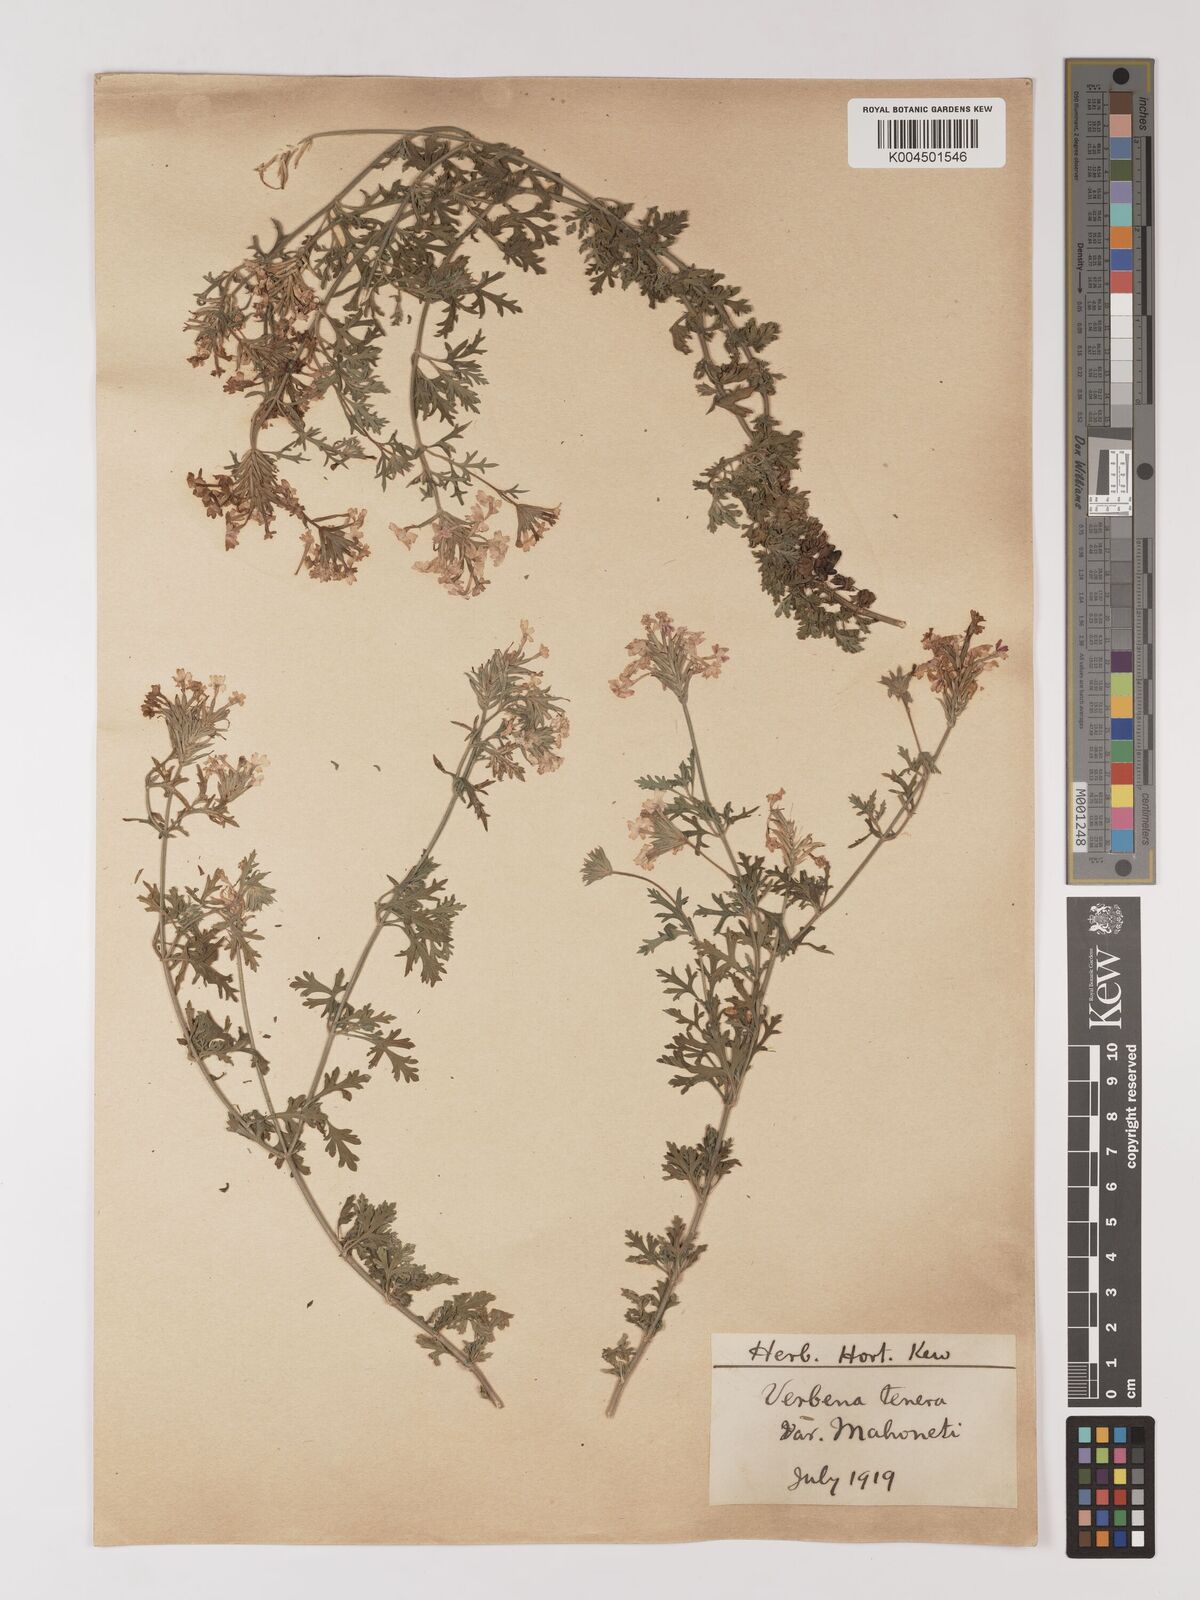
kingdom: Plantae
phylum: Tracheophyta
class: Magnoliopsida
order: Lamiales
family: Verbenaceae
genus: Verbena
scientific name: Verbena tenera
